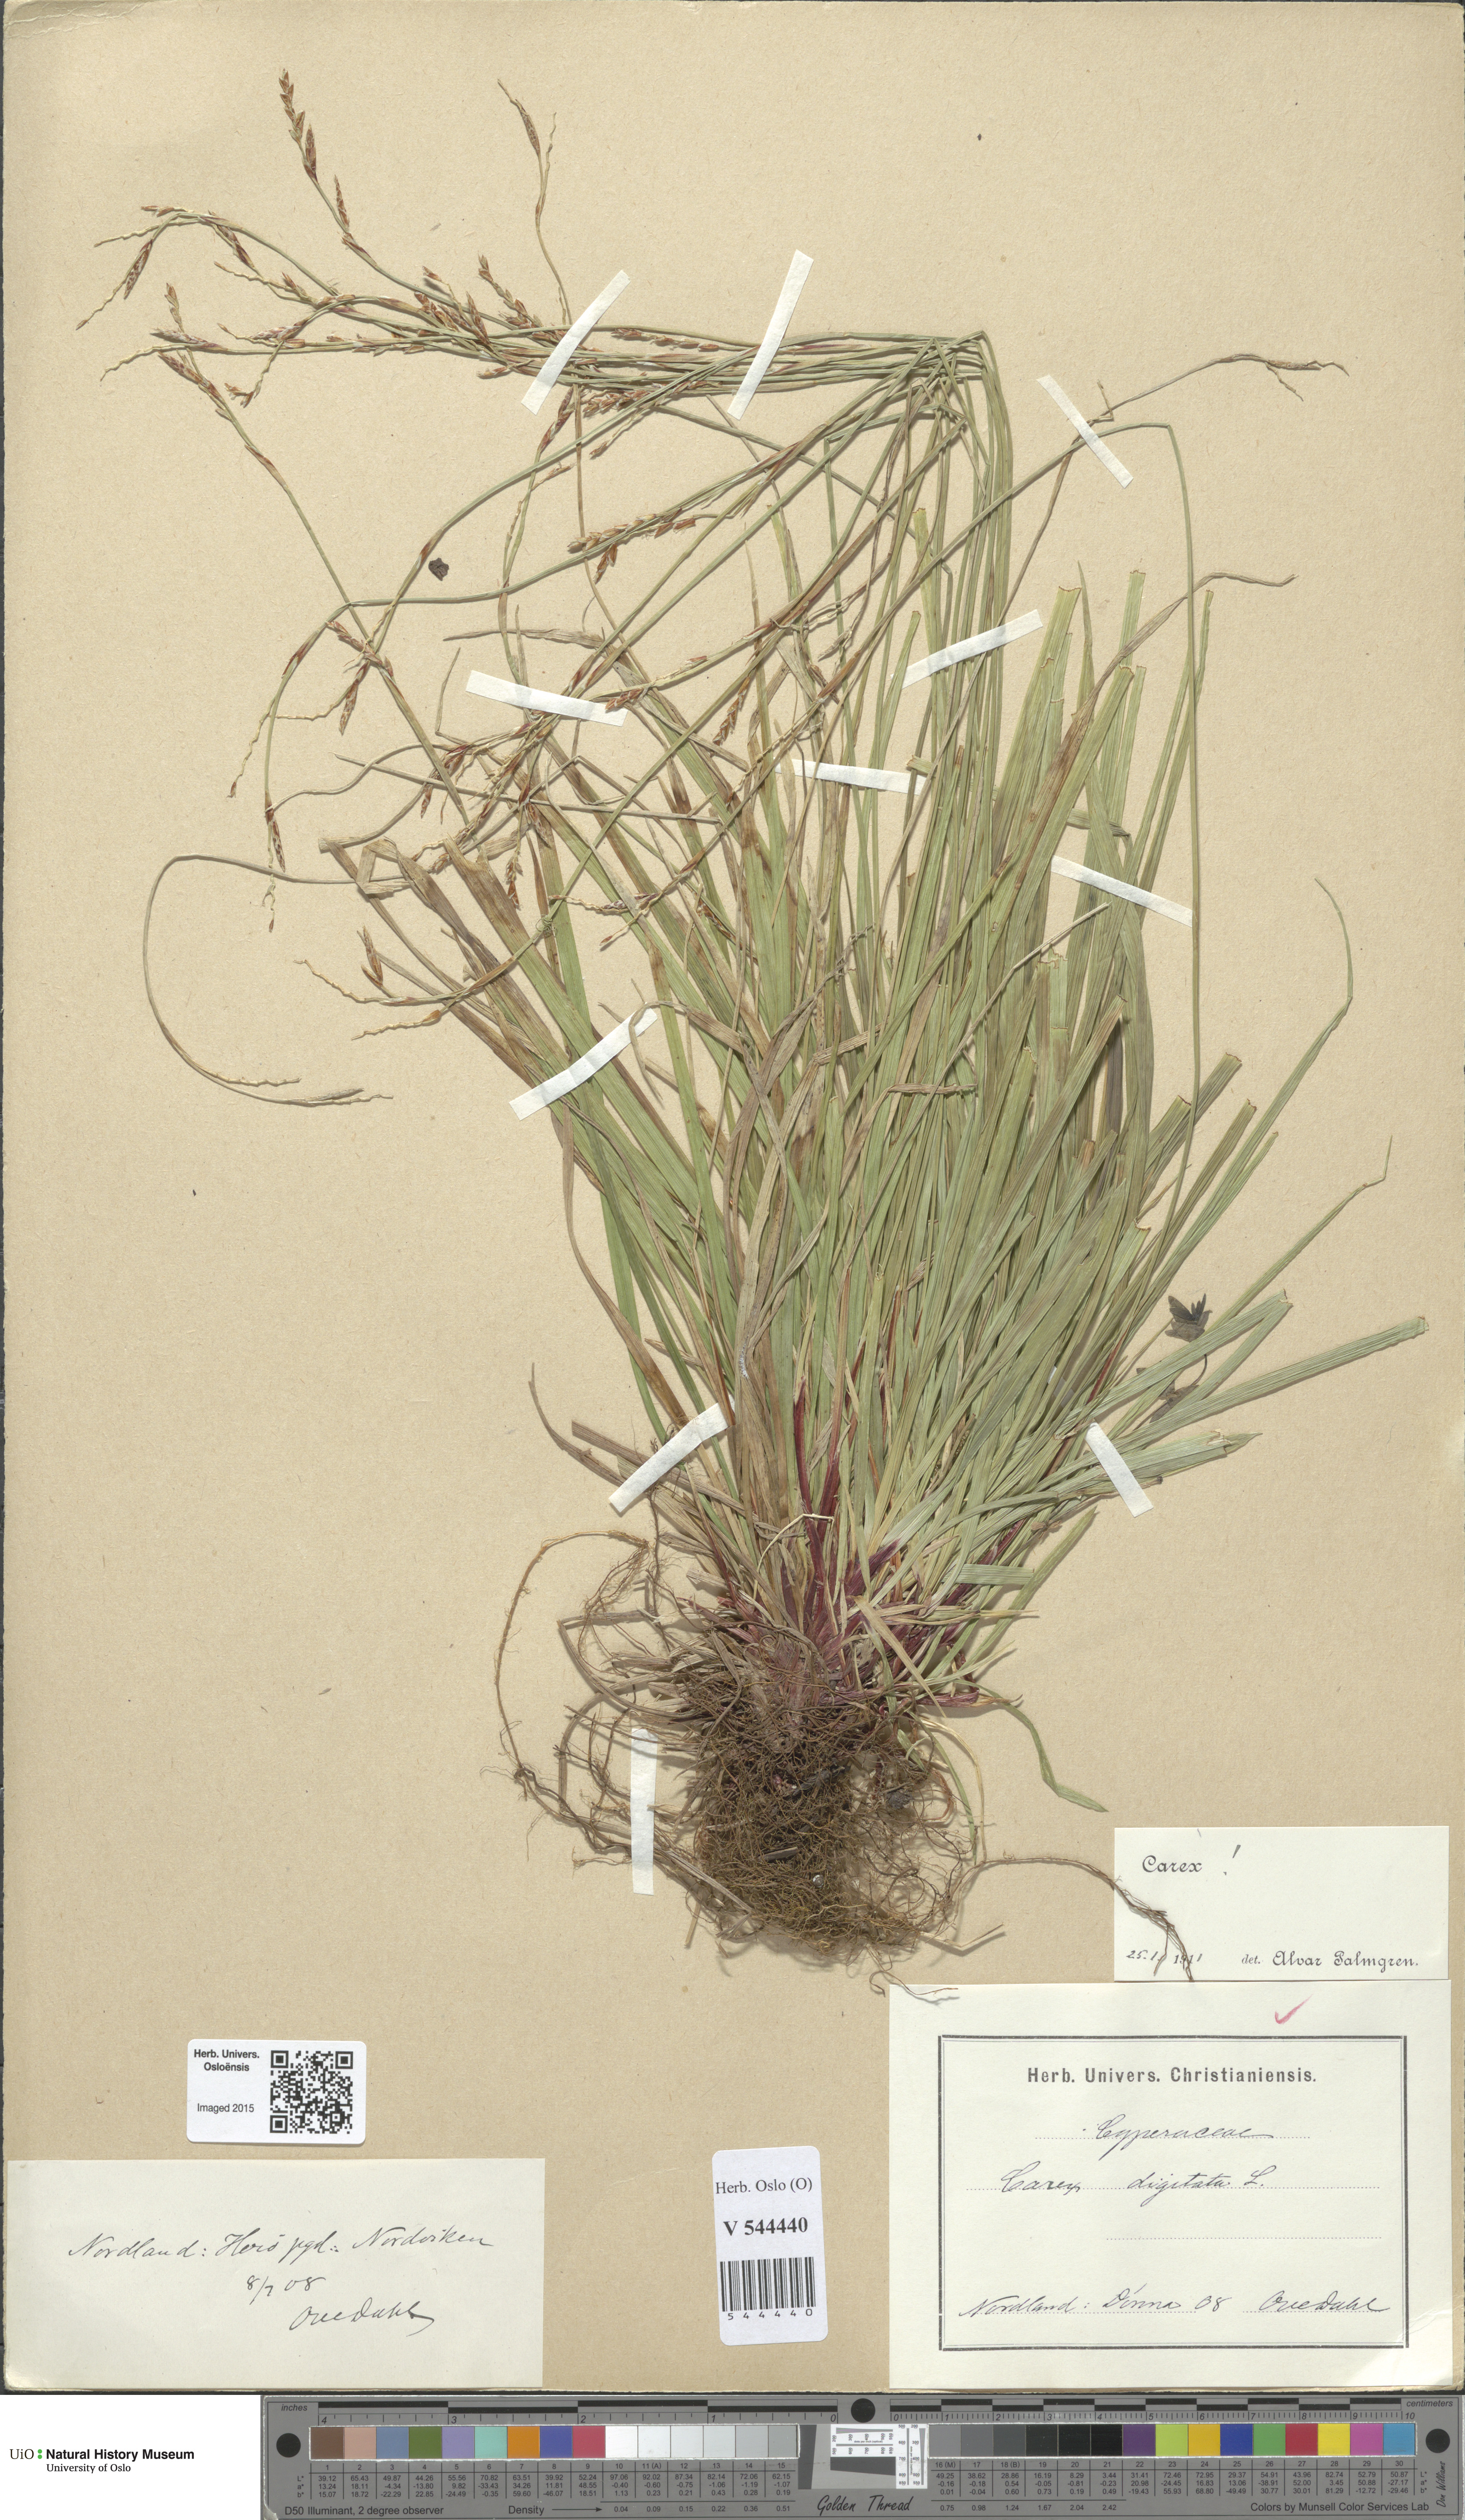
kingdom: Plantae
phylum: Tracheophyta
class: Liliopsida
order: Poales
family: Cyperaceae
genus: Carex
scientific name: Carex digitata
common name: Fingered sedge
